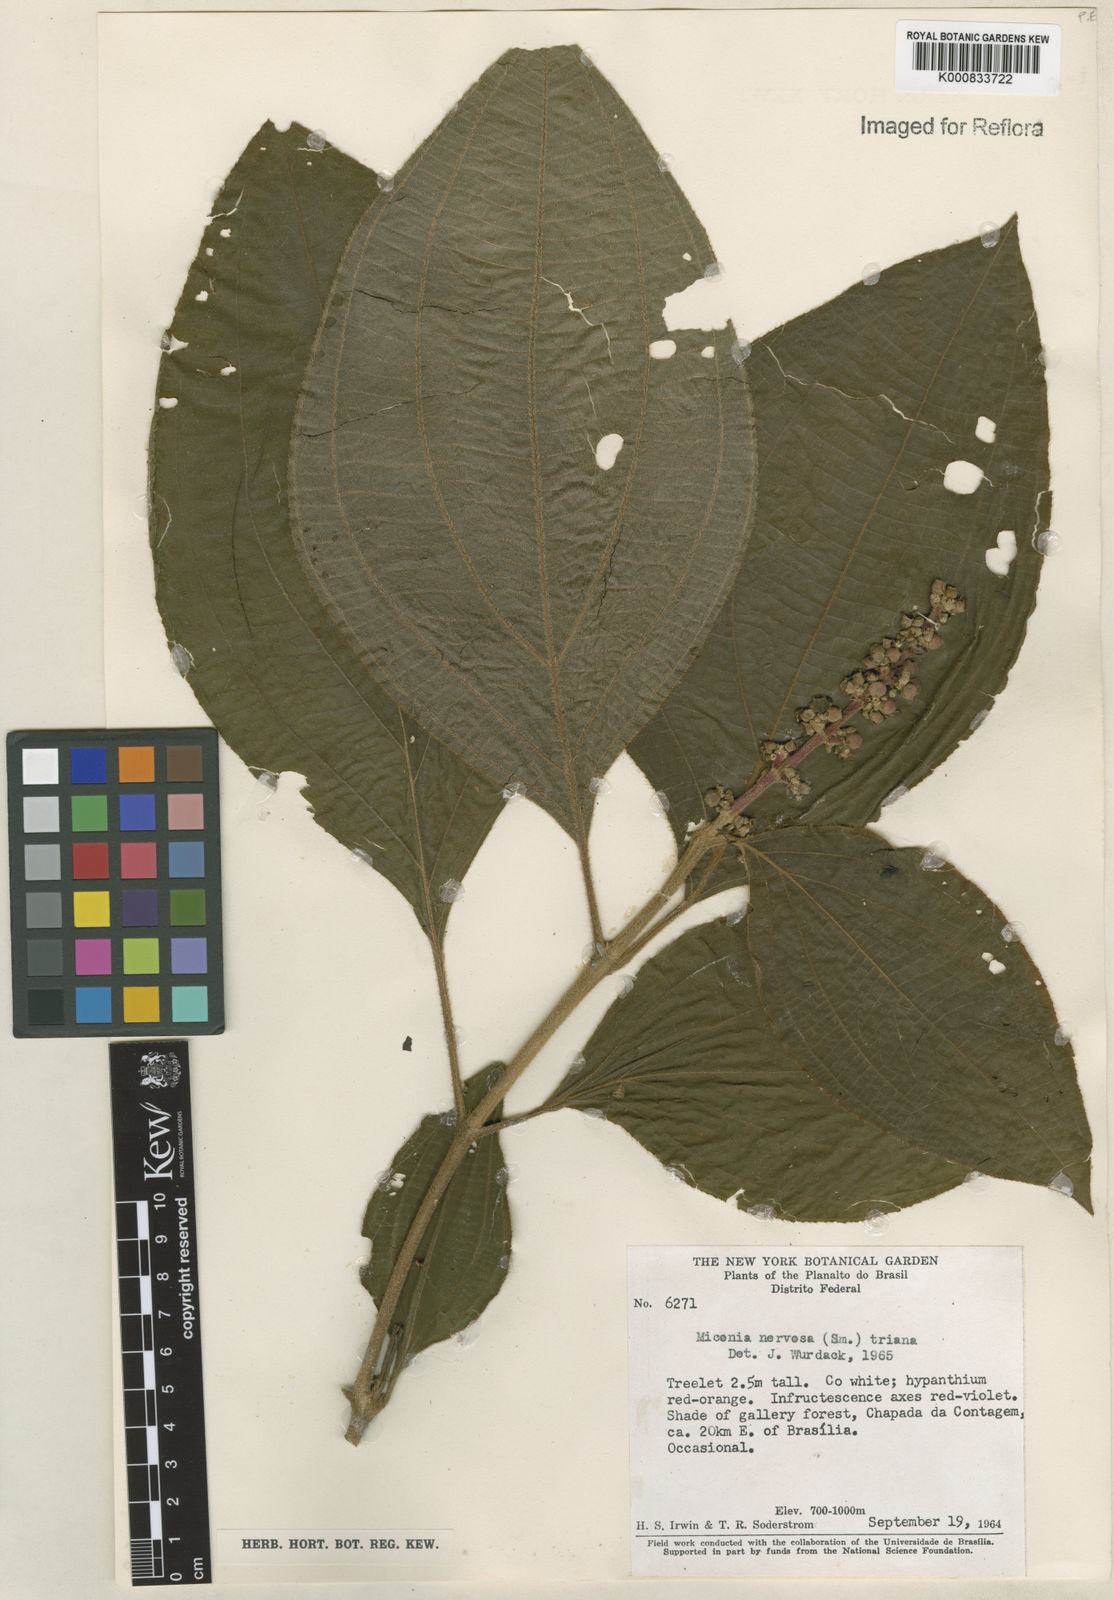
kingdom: Plantae
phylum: Tracheophyta
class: Magnoliopsida
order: Myrtales
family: Melastomataceae
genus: Miconia
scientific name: Miconia nervosa
